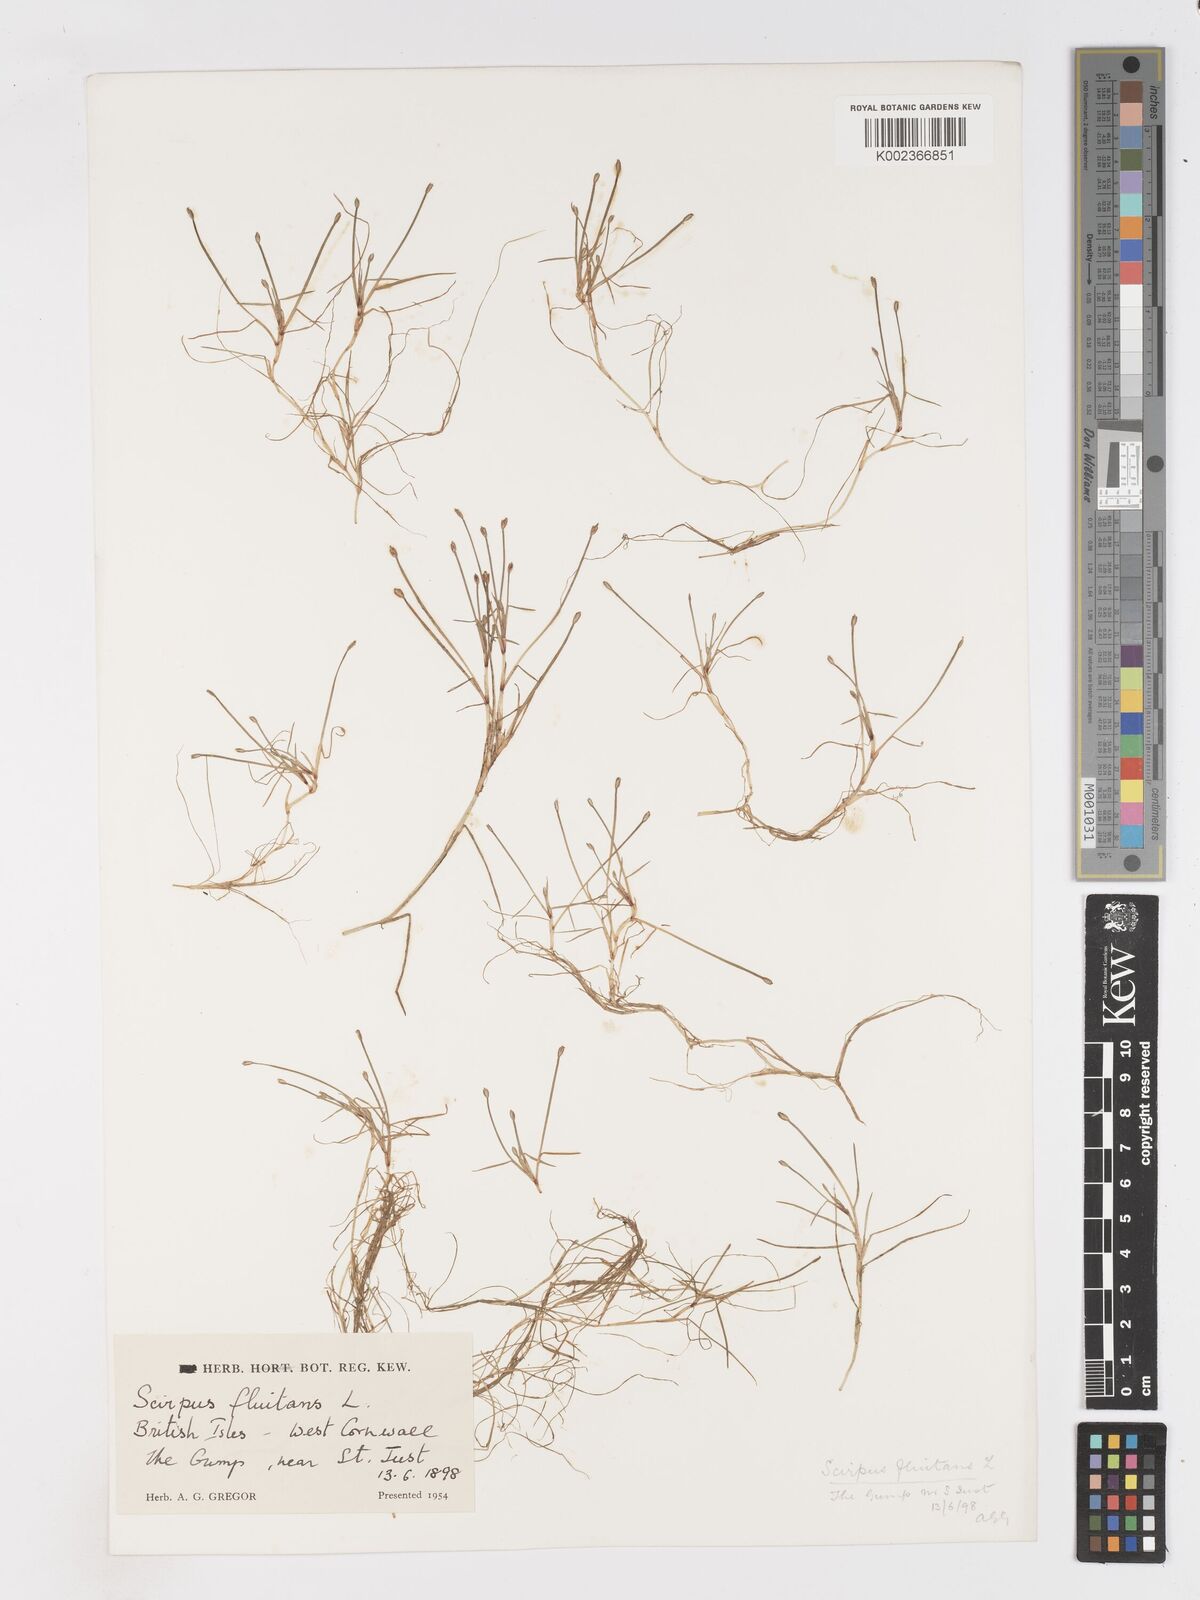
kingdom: Plantae
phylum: Tracheophyta
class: Liliopsida
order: Poales
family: Cyperaceae
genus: Isolepis
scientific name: Isolepis fluitans
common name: Floating club-rush
